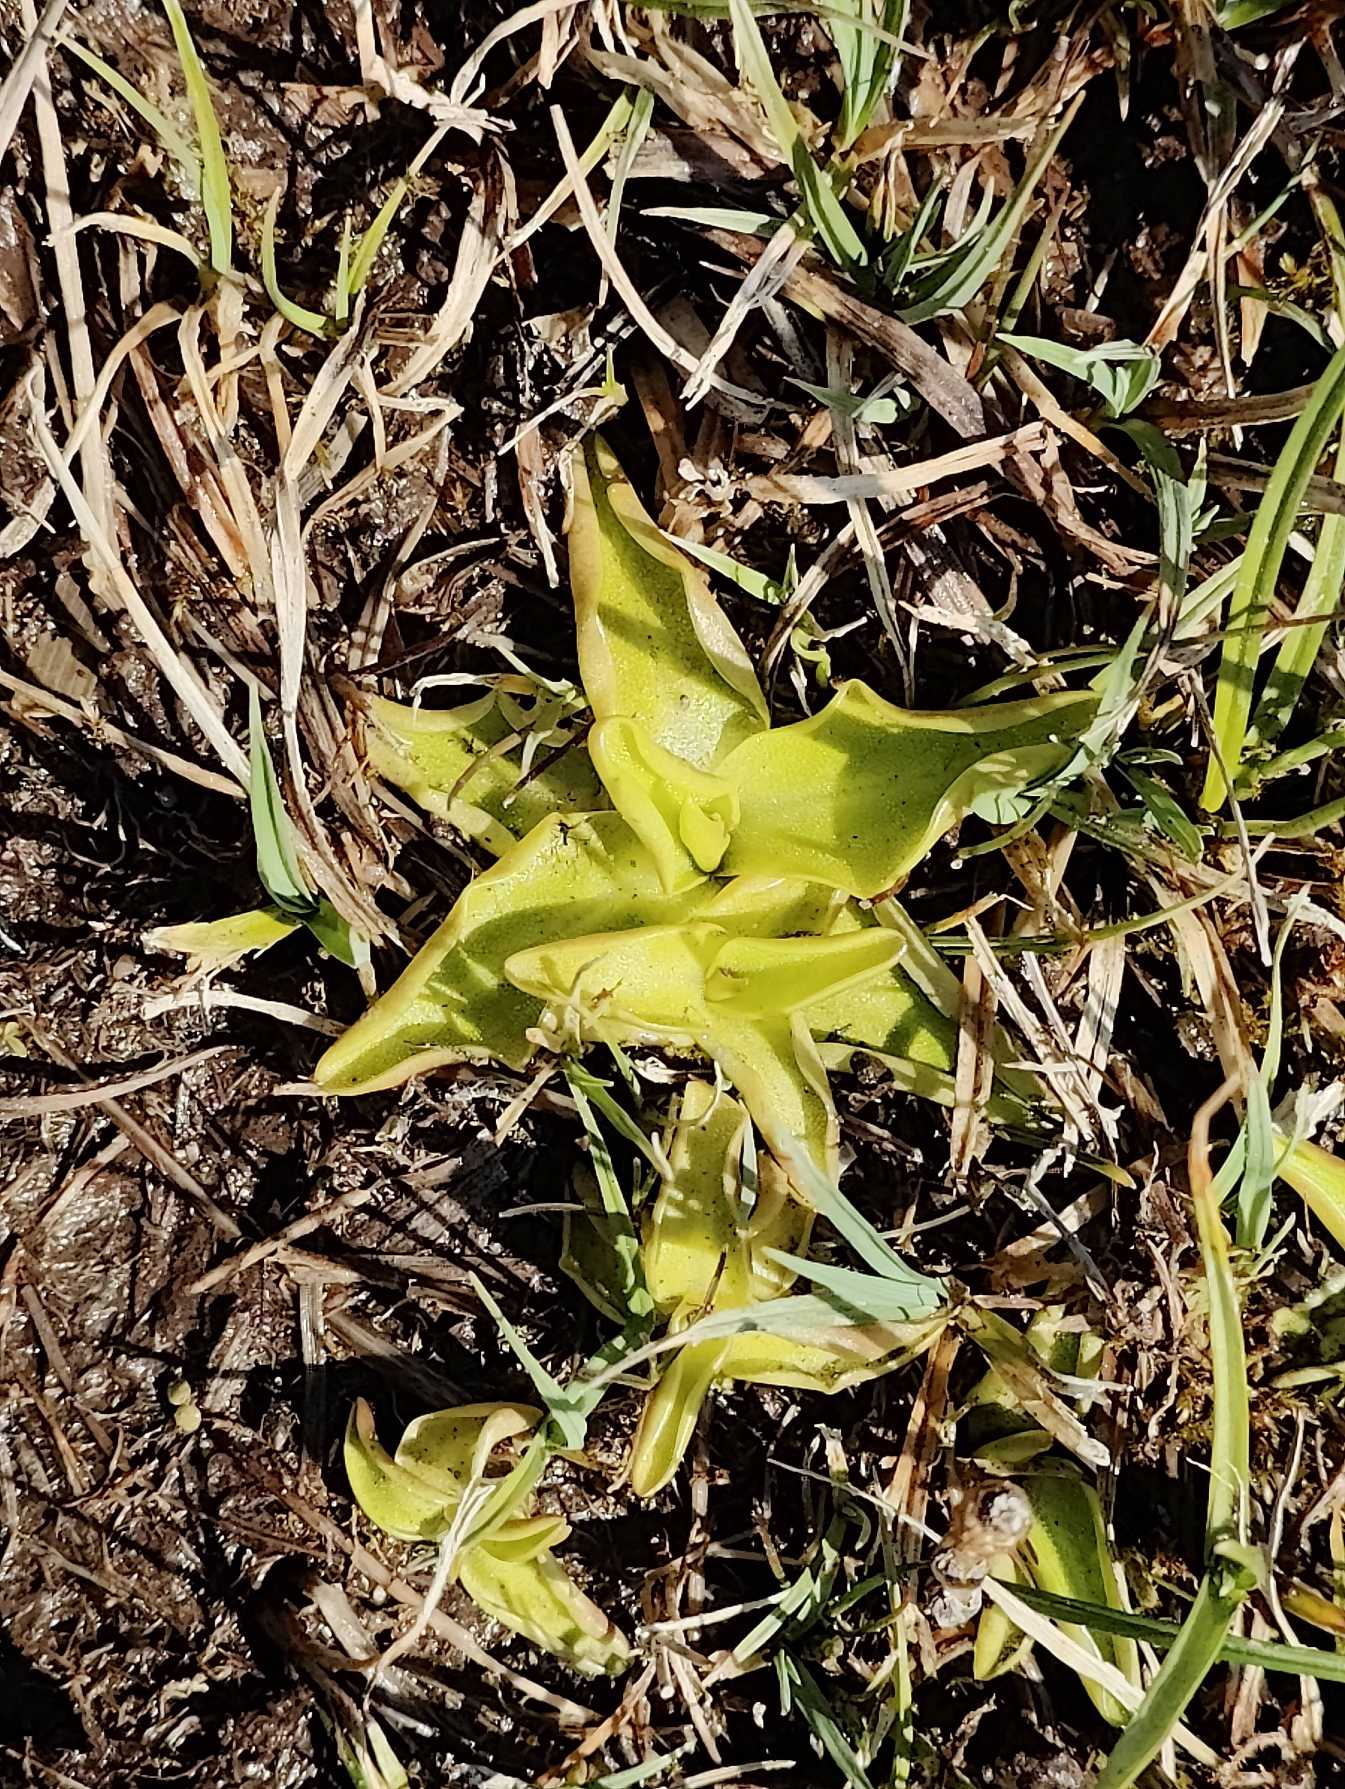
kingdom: Plantae
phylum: Tracheophyta
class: Magnoliopsida
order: Lamiales
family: Lentibulariaceae
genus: Pinguicula
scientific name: Pinguicula vulgaris
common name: Vibefedt
